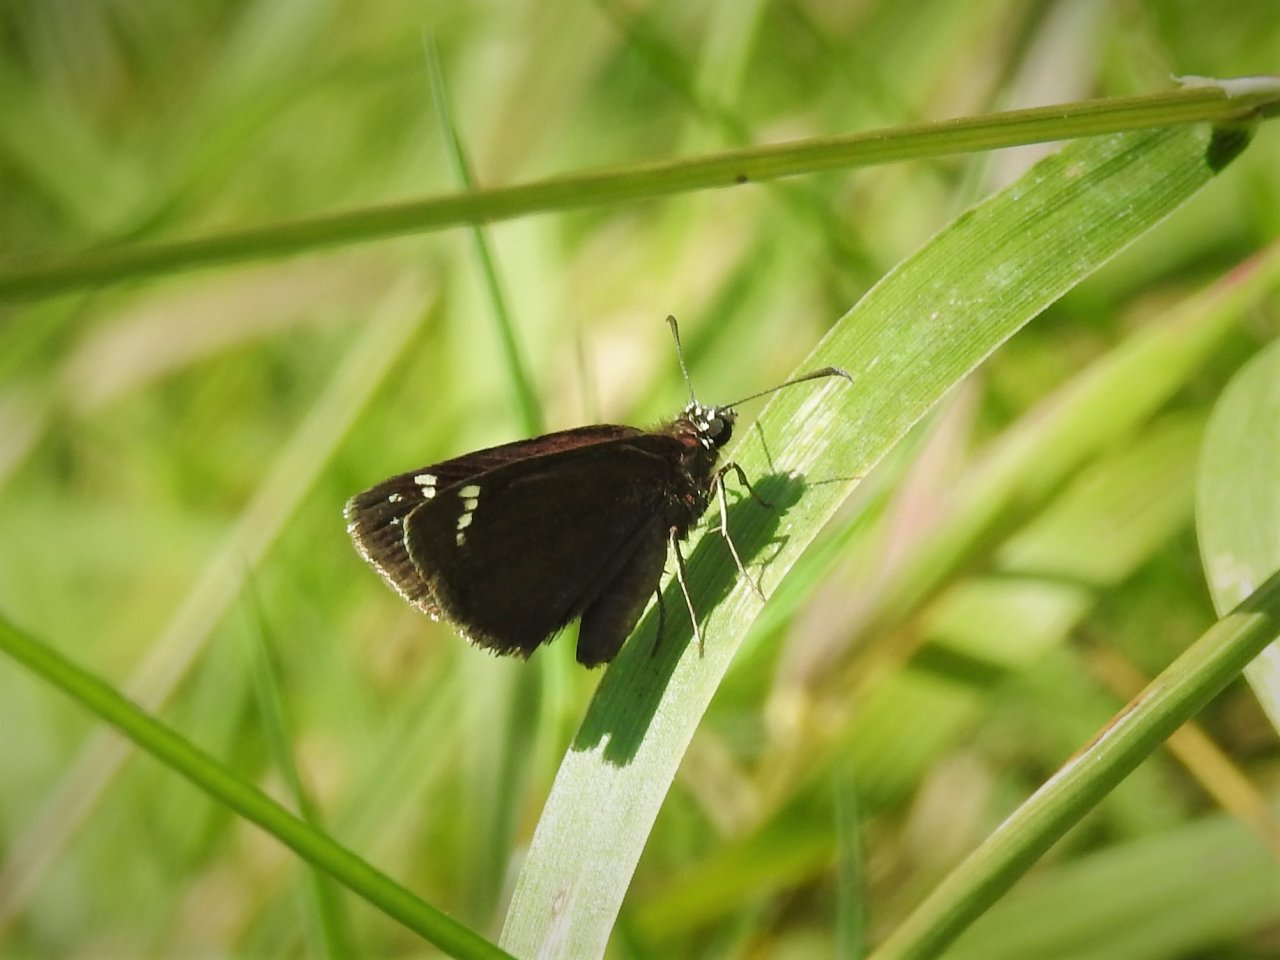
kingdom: Animalia
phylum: Arthropoda
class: Insecta
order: Lepidoptera
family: Hesperiidae
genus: Pholisora
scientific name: Pholisora catullus
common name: Common Sootywing
